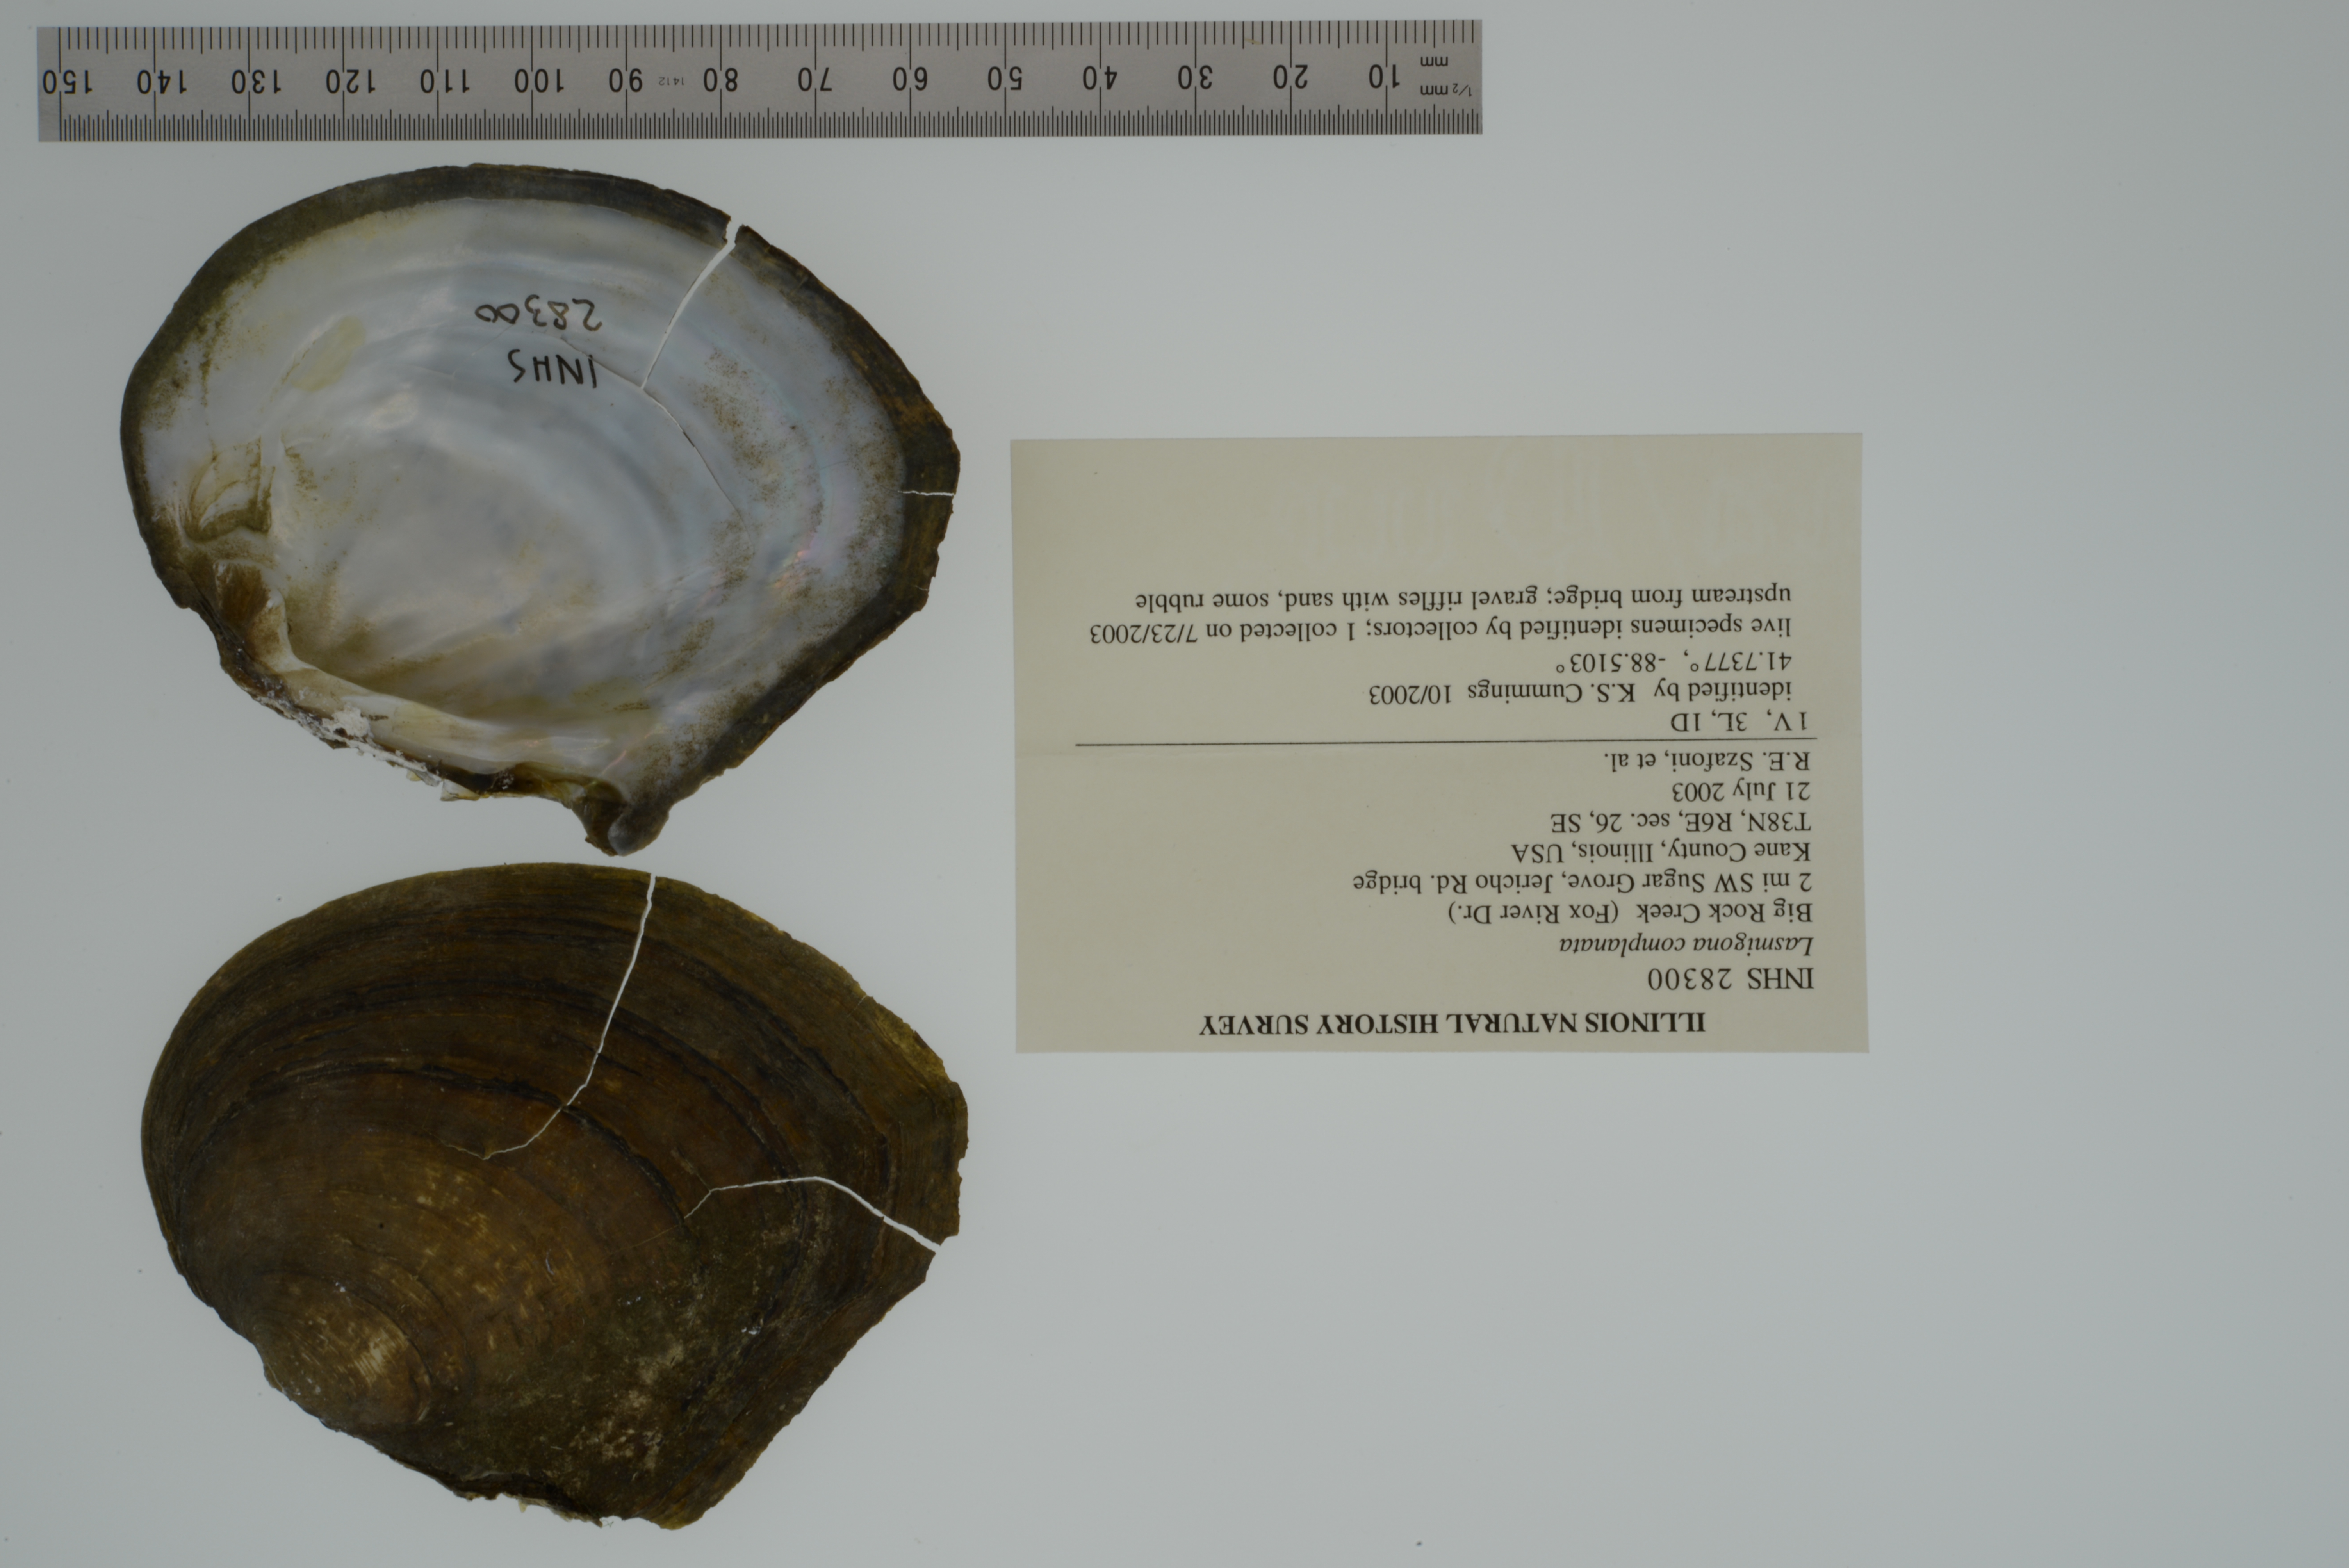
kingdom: Animalia
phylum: Mollusca
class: Bivalvia
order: Unionida
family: Unionidae
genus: Lasmigona
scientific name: Lasmigona complanata
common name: White heelsplitter
